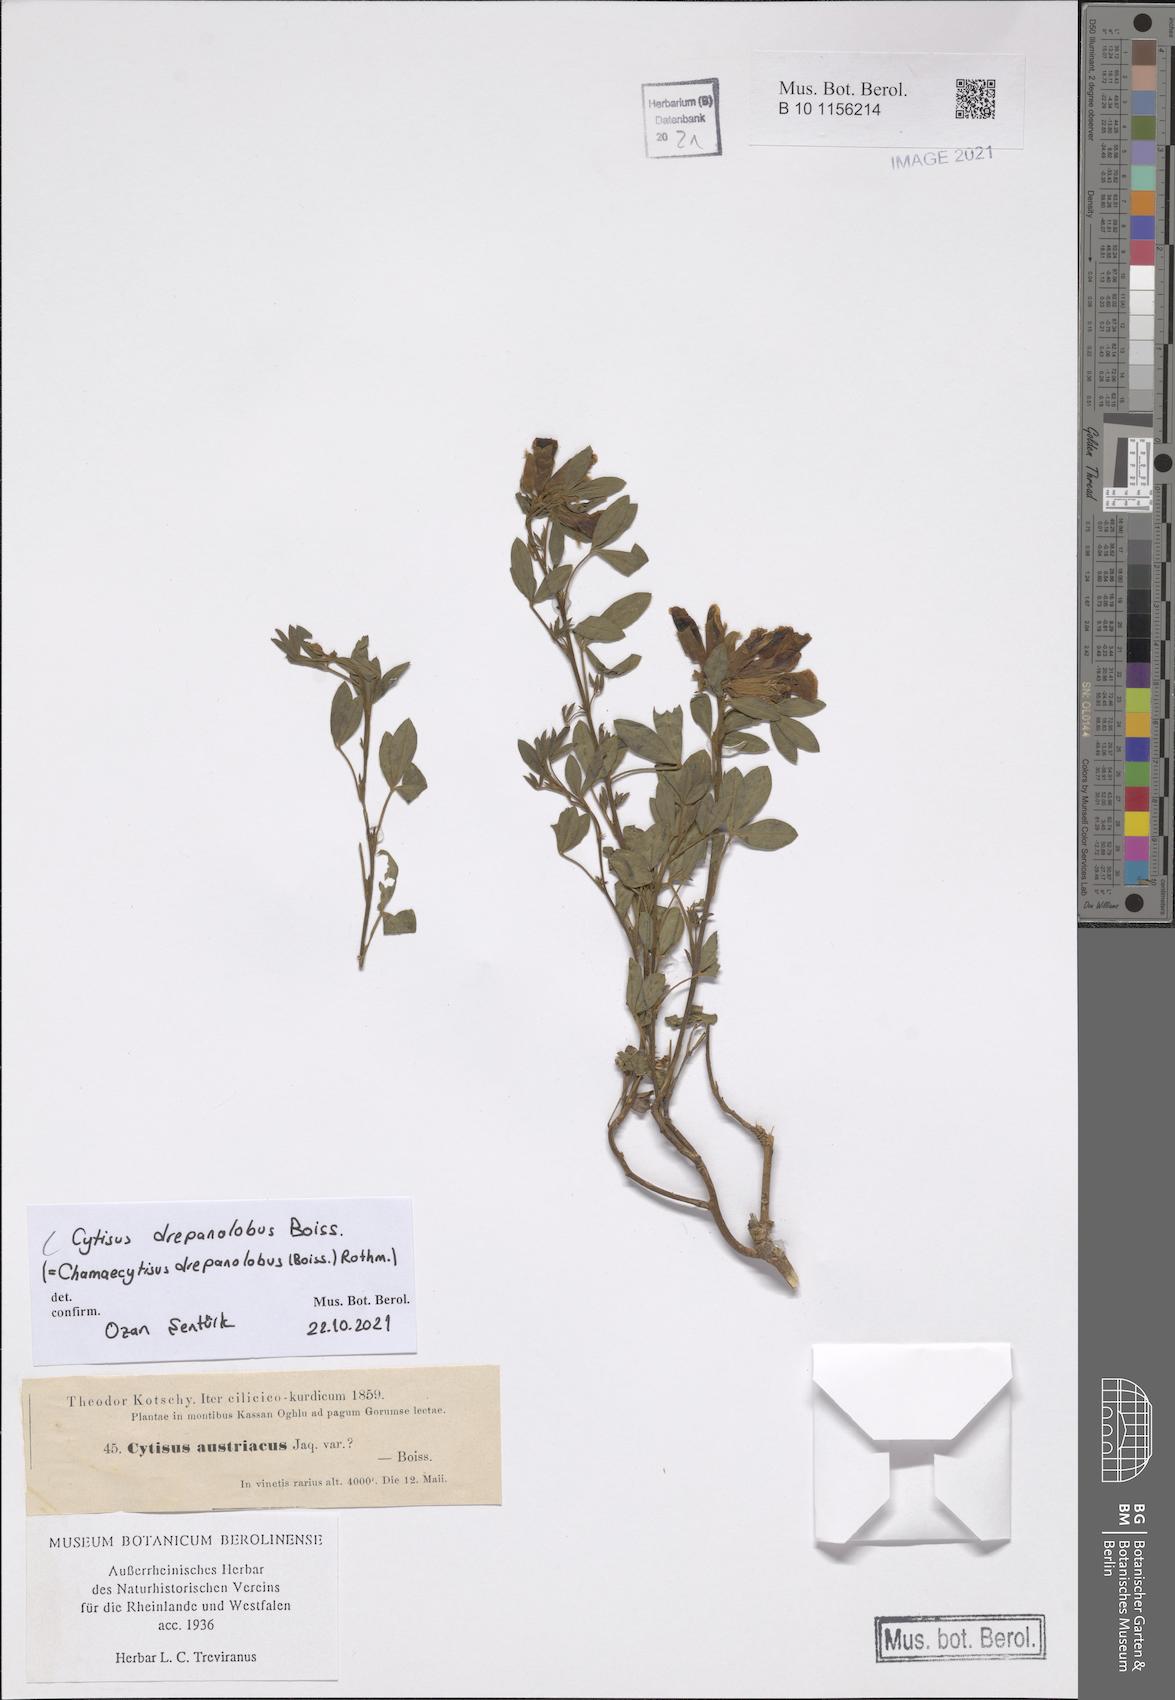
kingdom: Plantae
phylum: Tracheophyta
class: Magnoliopsida
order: Fabales
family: Fabaceae
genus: Chamaecytisus
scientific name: Chamaecytisus drepanolobus
